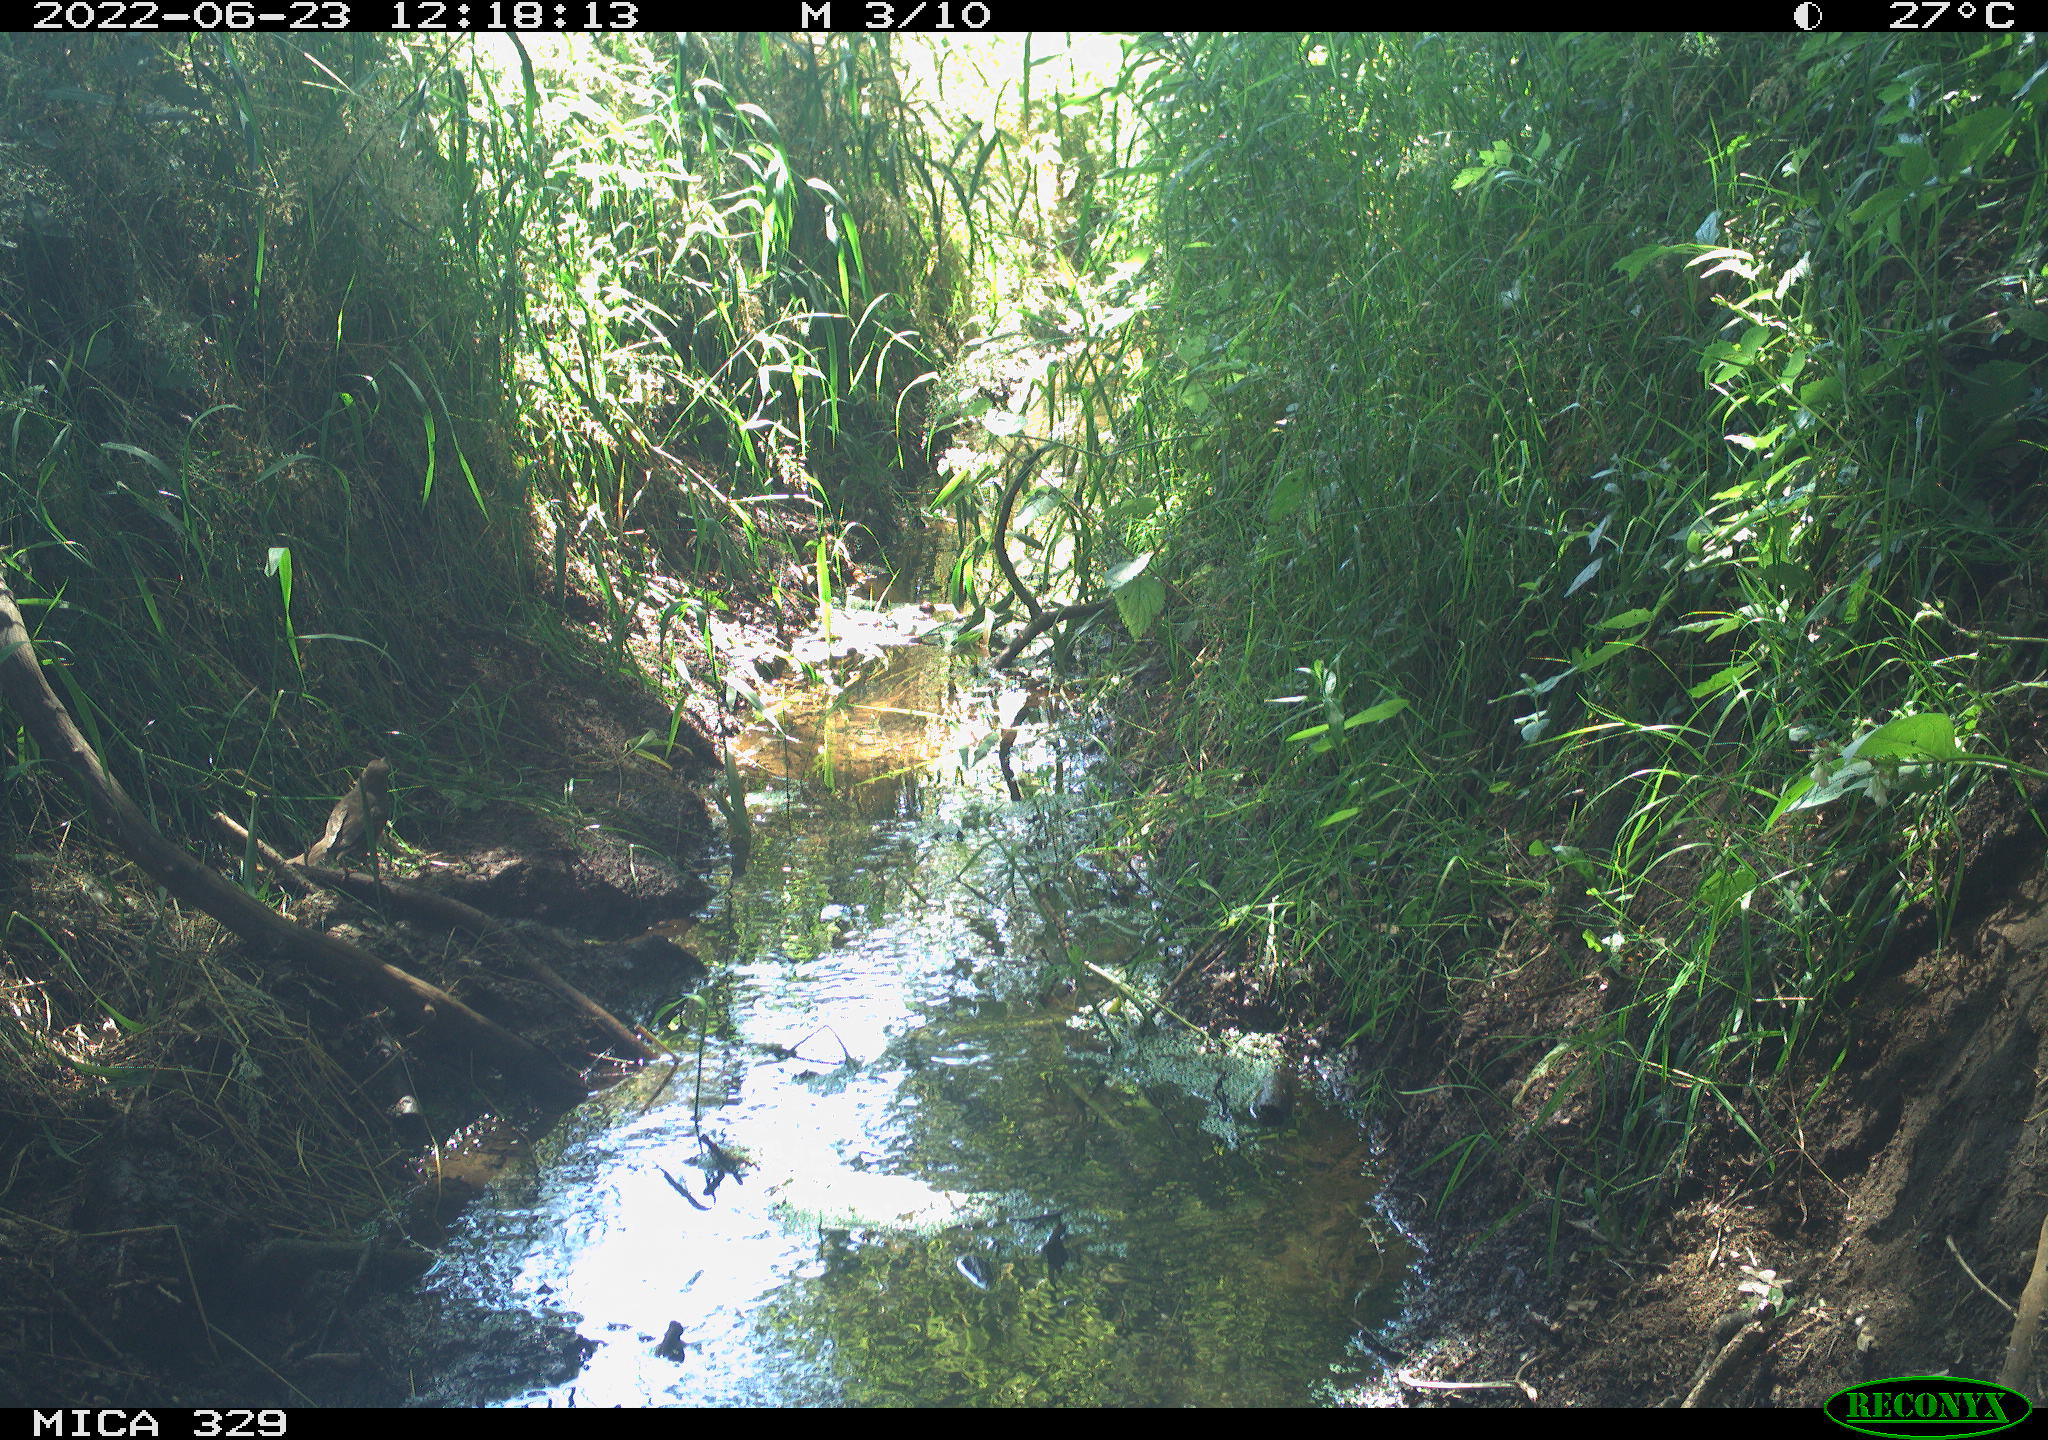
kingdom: Animalia
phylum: Chordata
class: Aves
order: Passeriformes
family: Turdidae
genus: Turdus
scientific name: Turdus merula
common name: Common blackbird
